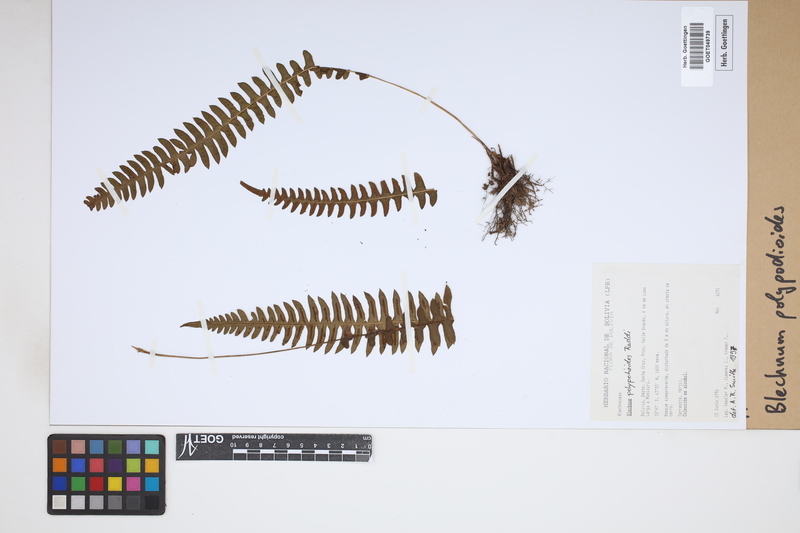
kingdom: Plantae
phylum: Tracheophyta
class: Polypodiopsida
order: Polypodiales
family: Blechnaceae
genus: Blechnum
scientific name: Blechnum polypodioides
